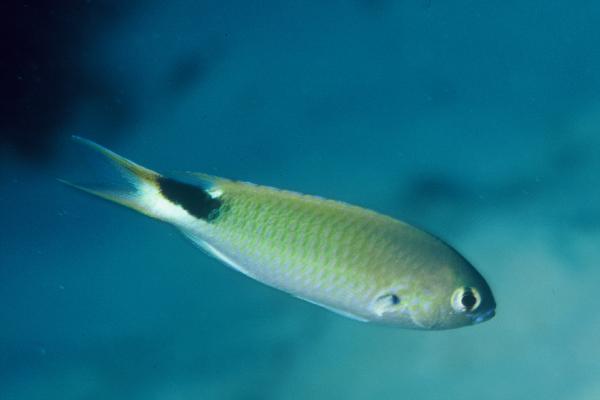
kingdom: Animalia
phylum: Chordata
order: Perciformes
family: Pomacentridae
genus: Pomachromis
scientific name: Pomachromis exilis
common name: Slender reef-damsel
